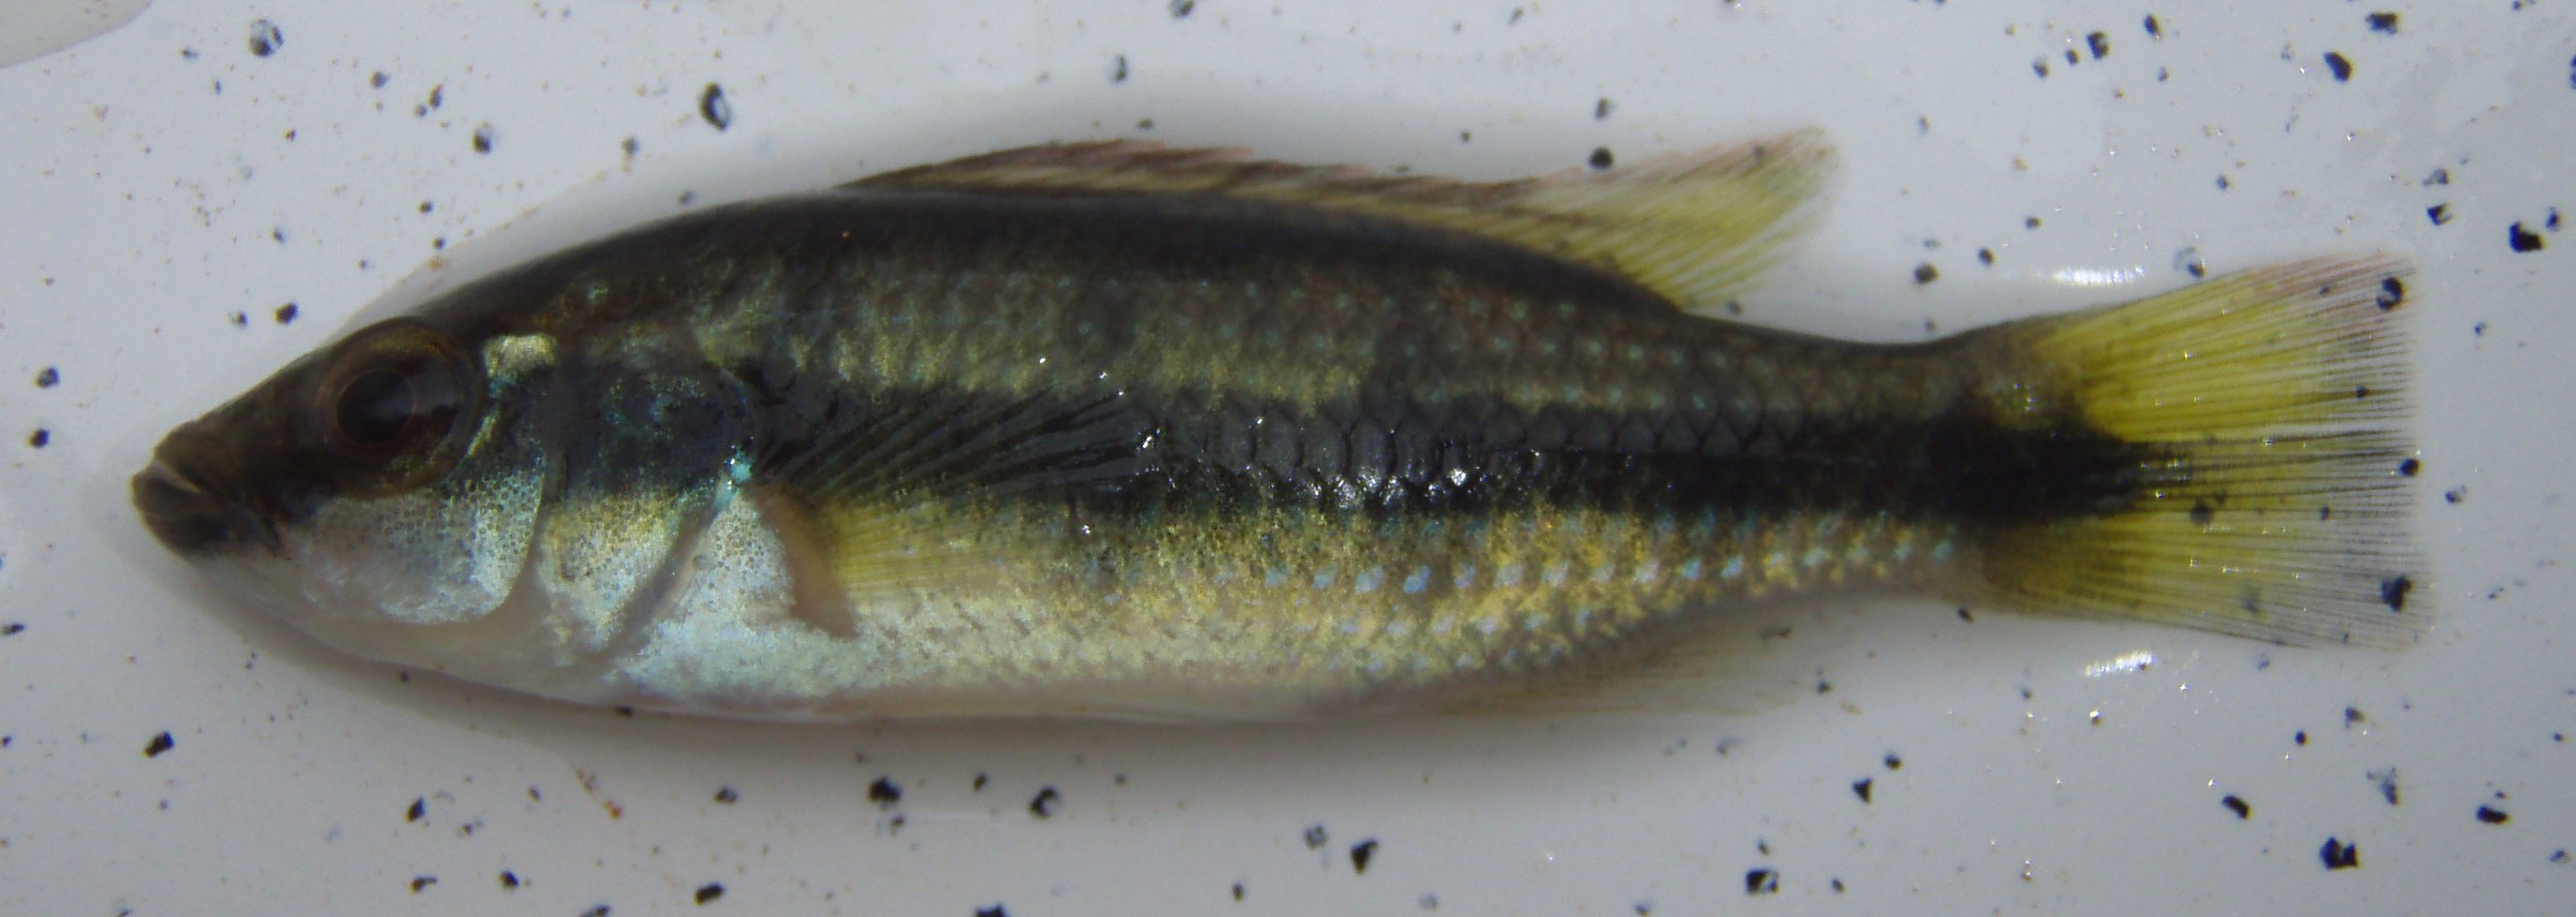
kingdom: Animalia
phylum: Chordata
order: Perciformes
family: Cichlidae
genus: Hemichromis
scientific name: Hemichromis fasciatus
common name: Banded jewelfish
